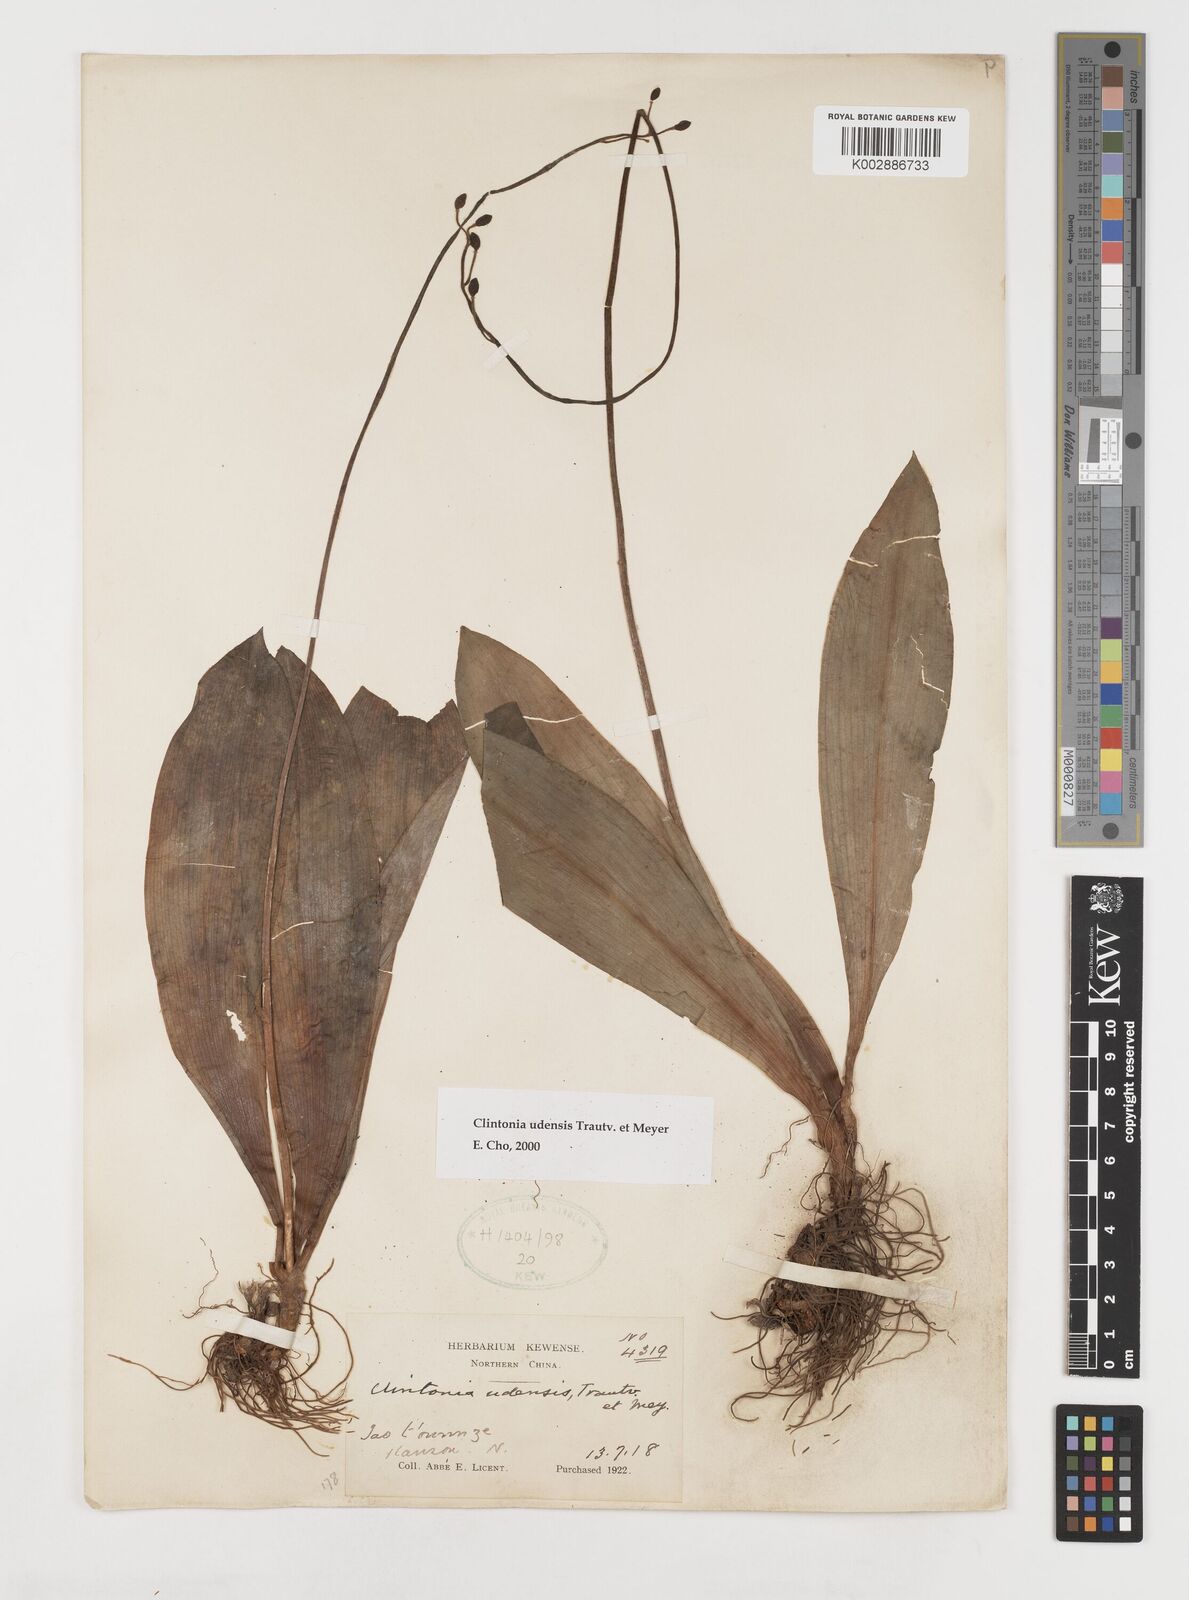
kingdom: Plantae
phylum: Tracheophyta
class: Liliopsida
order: Liliales
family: Liliaceae
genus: Clintonia
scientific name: Clintonia udensis
